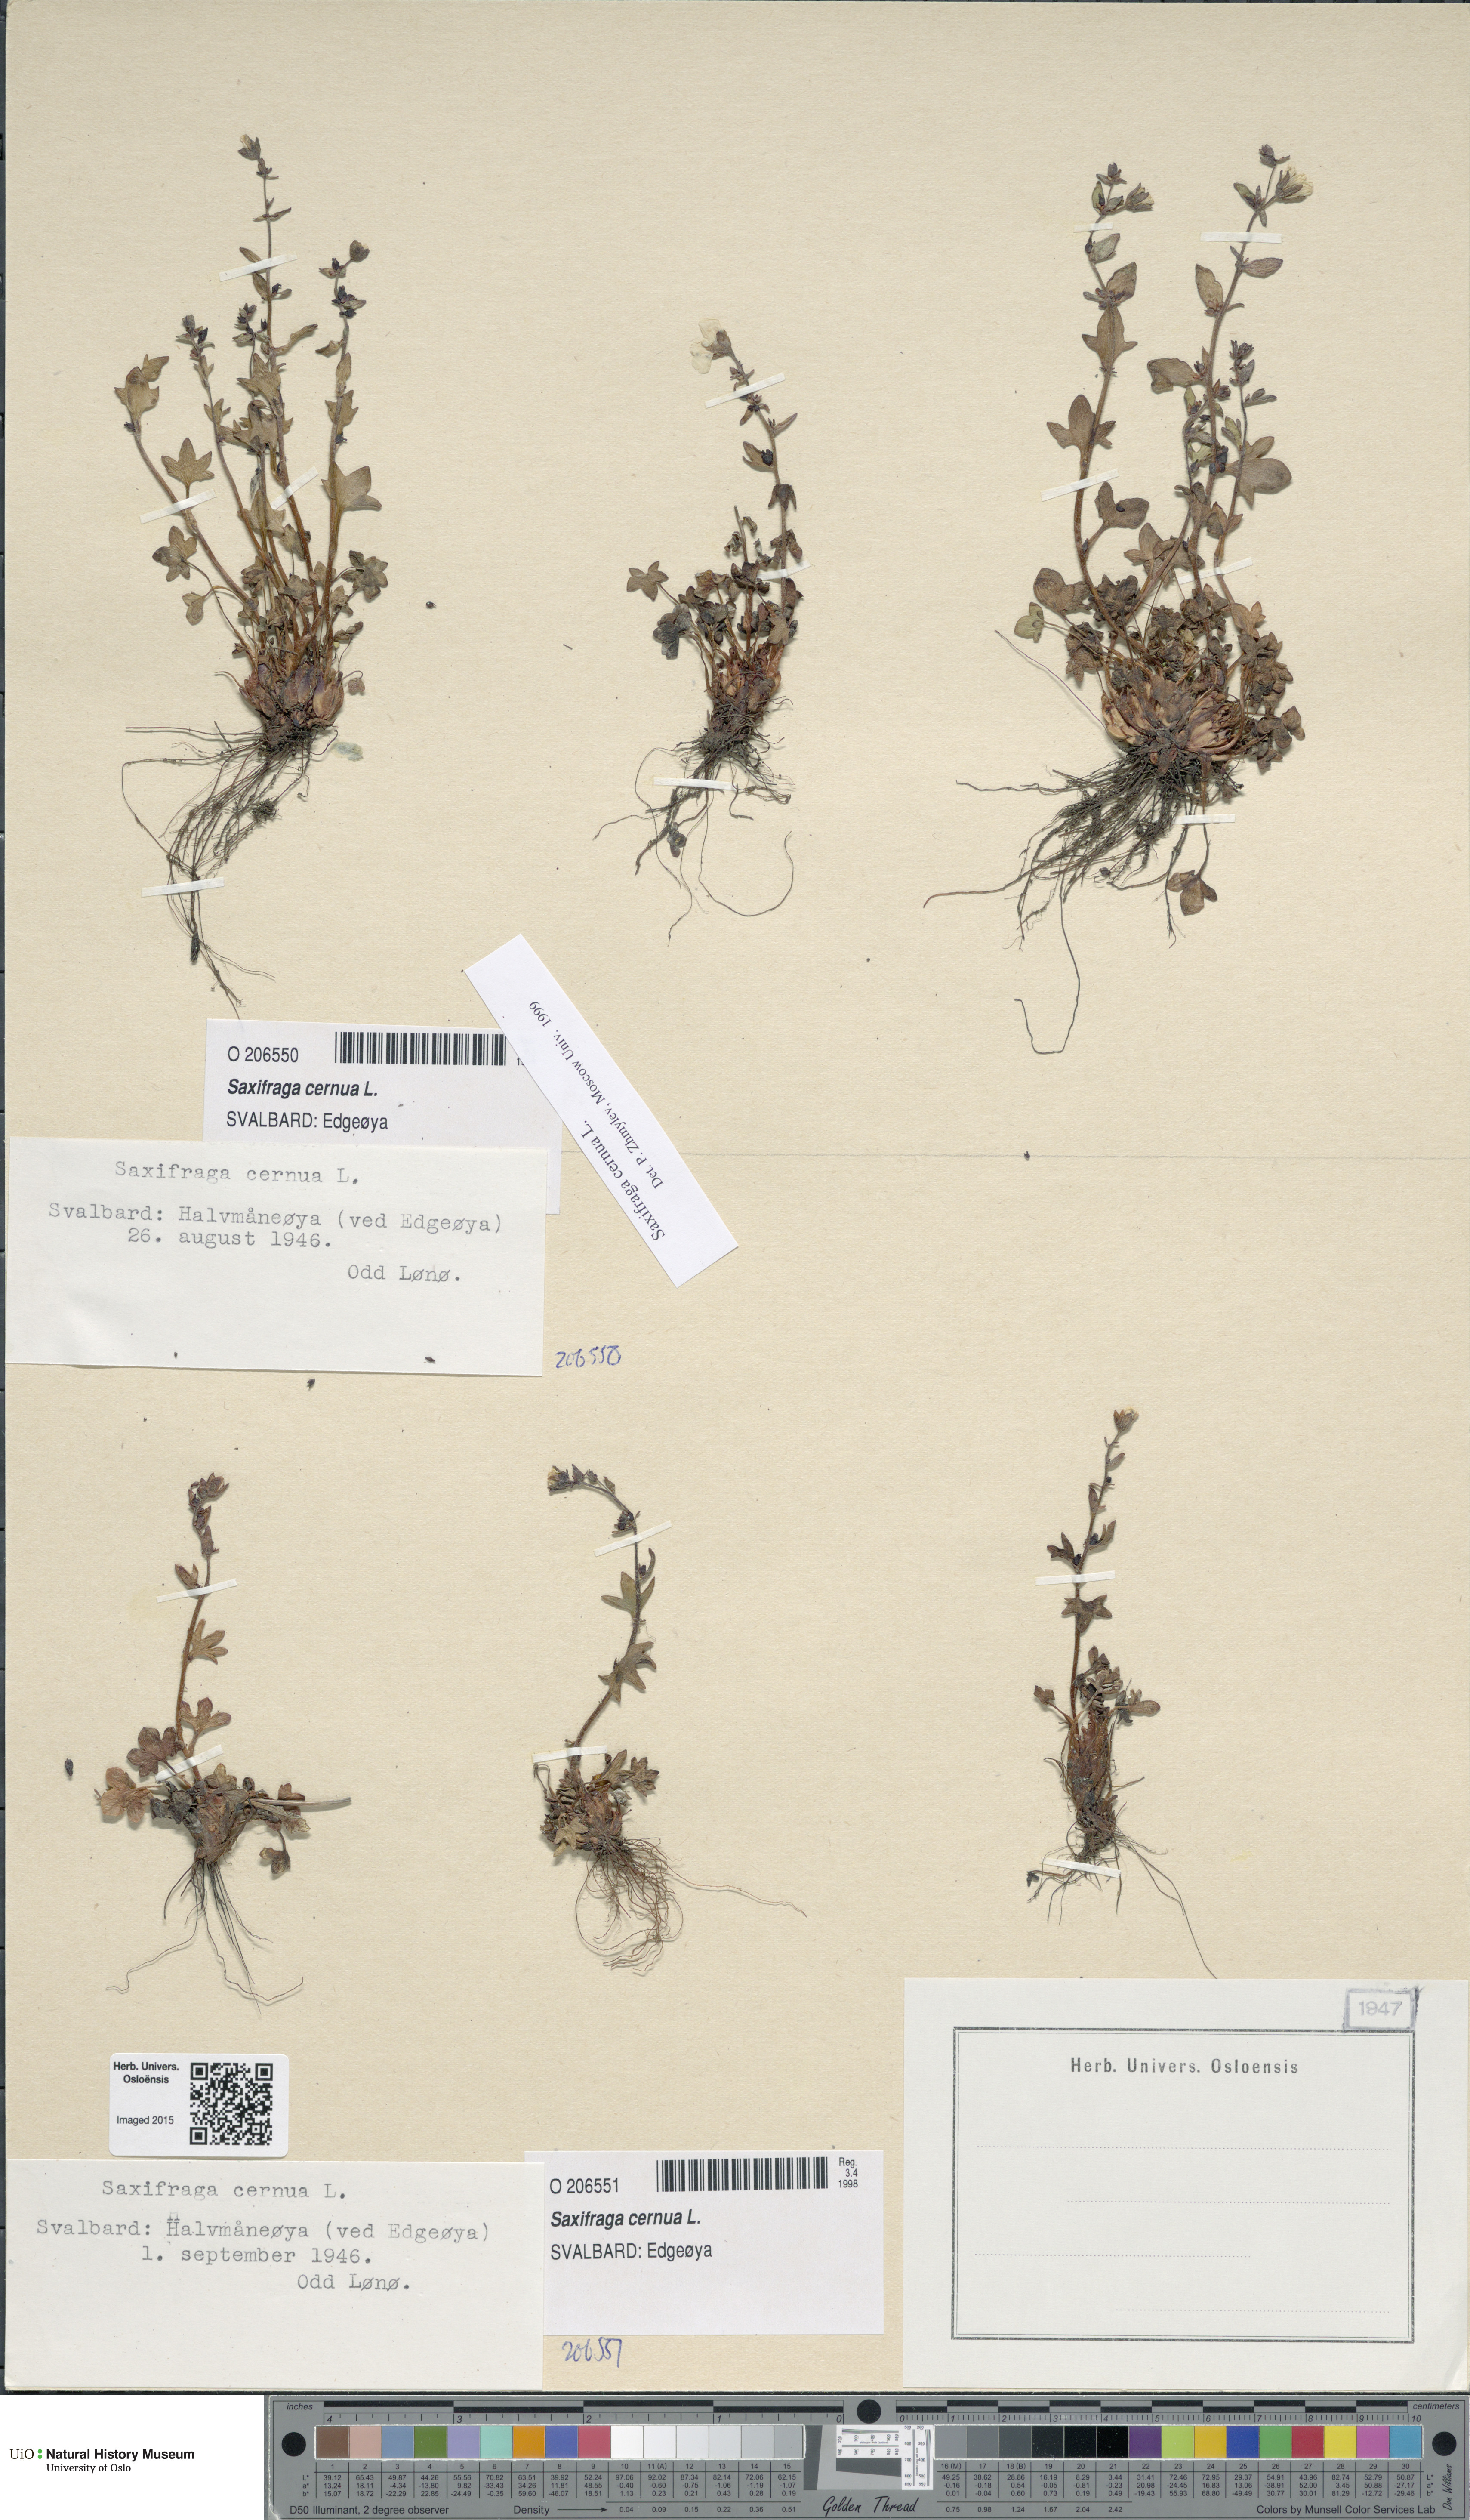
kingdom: Plantae
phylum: Tracheophyta
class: Magnoliopsida
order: Saxifragales
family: Saxifragaceae
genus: Saxifraga
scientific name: Saxifraga cernua
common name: Drooping saxifrage
